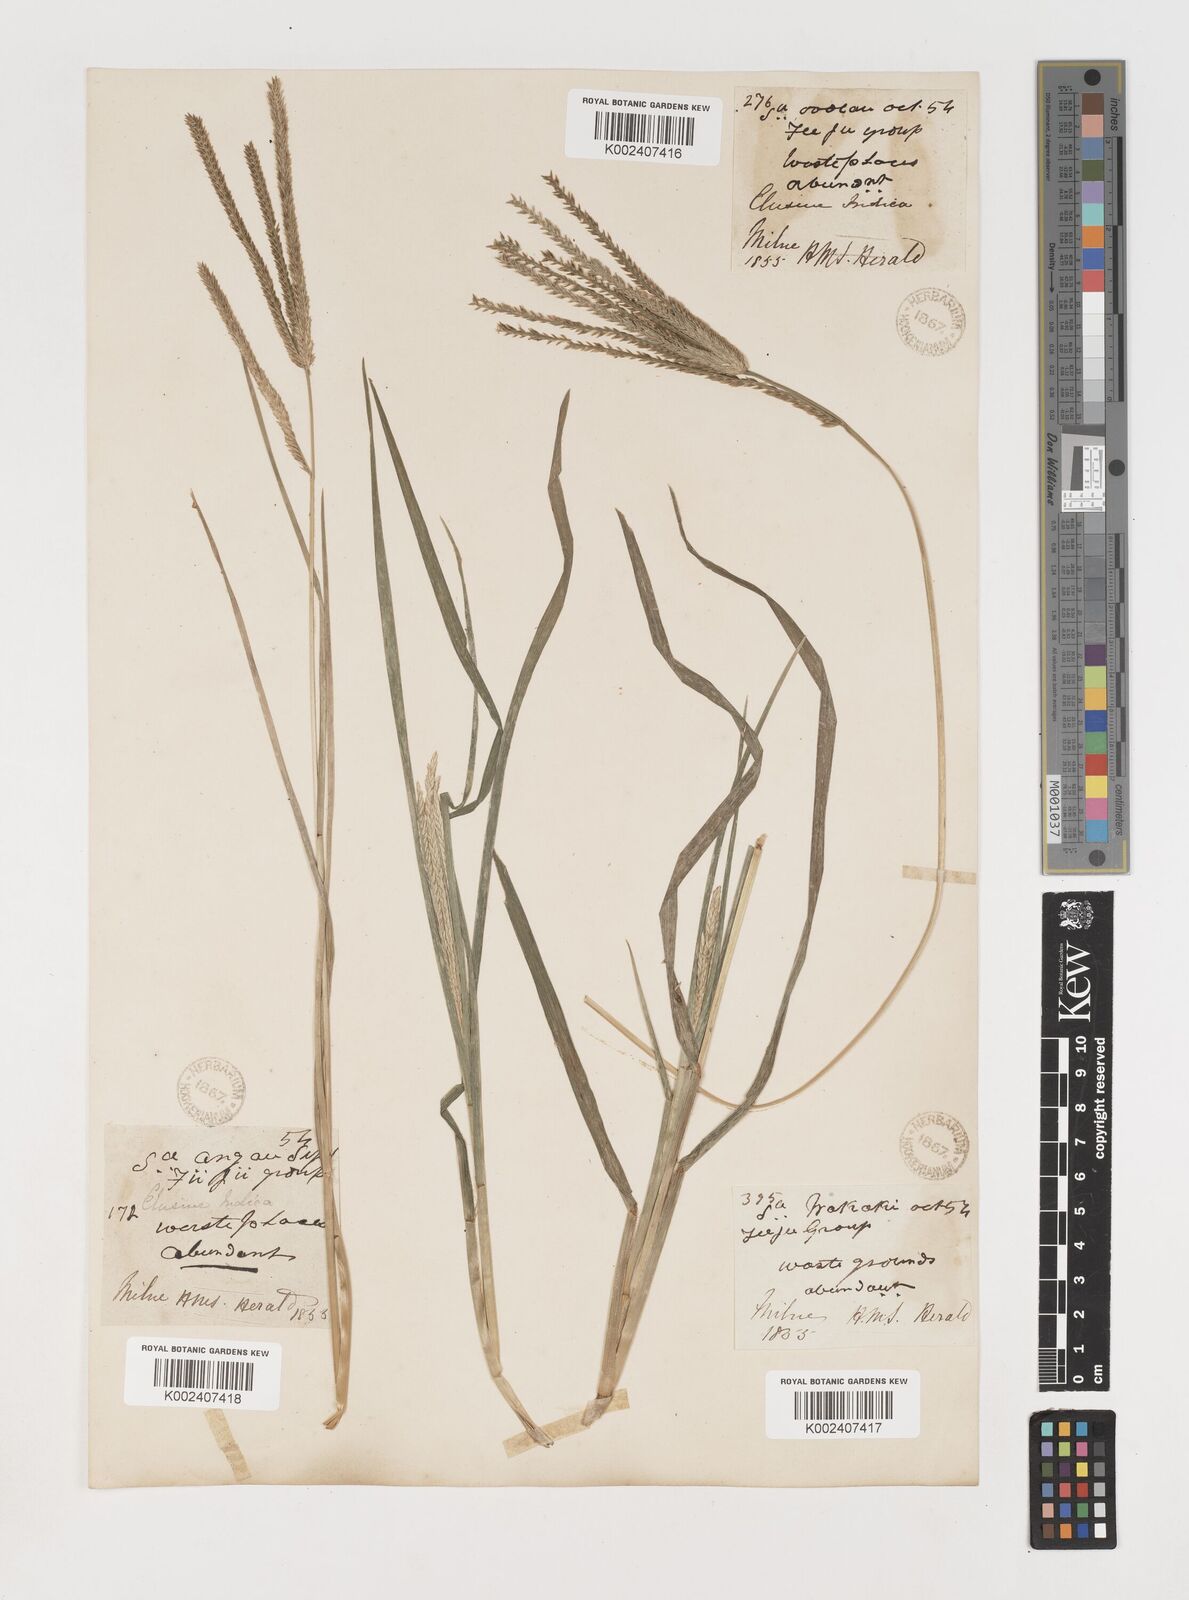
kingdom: Plantae
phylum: Tracheophyta
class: Liliopsida
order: Poales
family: Poaceae
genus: Eleusine
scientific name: Eleusine indica
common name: Yard-grass
